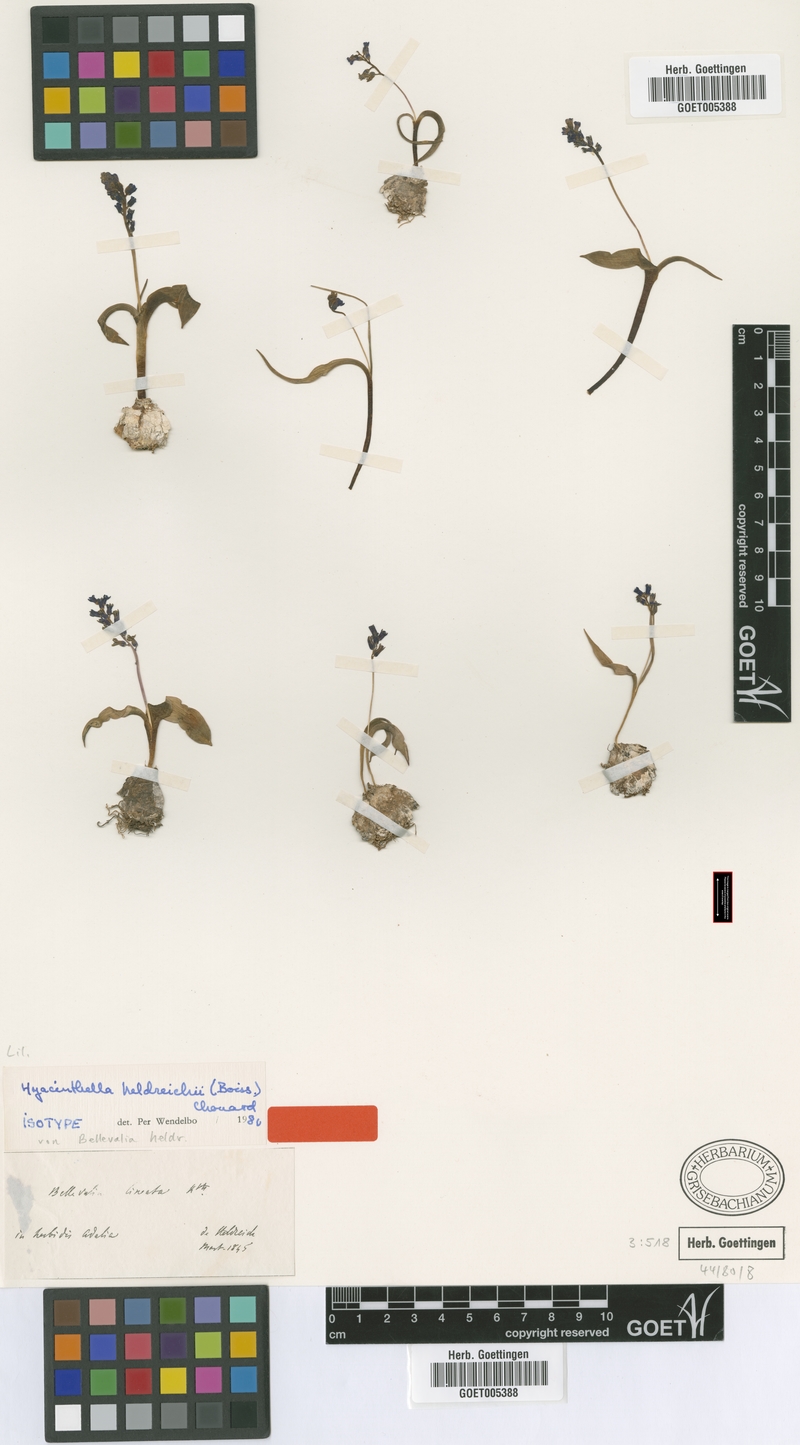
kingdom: Plantae
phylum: Tracheophyta
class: Liliopsida
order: Asparagales
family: Asparagaceae
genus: Hyacinthella
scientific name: Hyacinthella heldreichii
